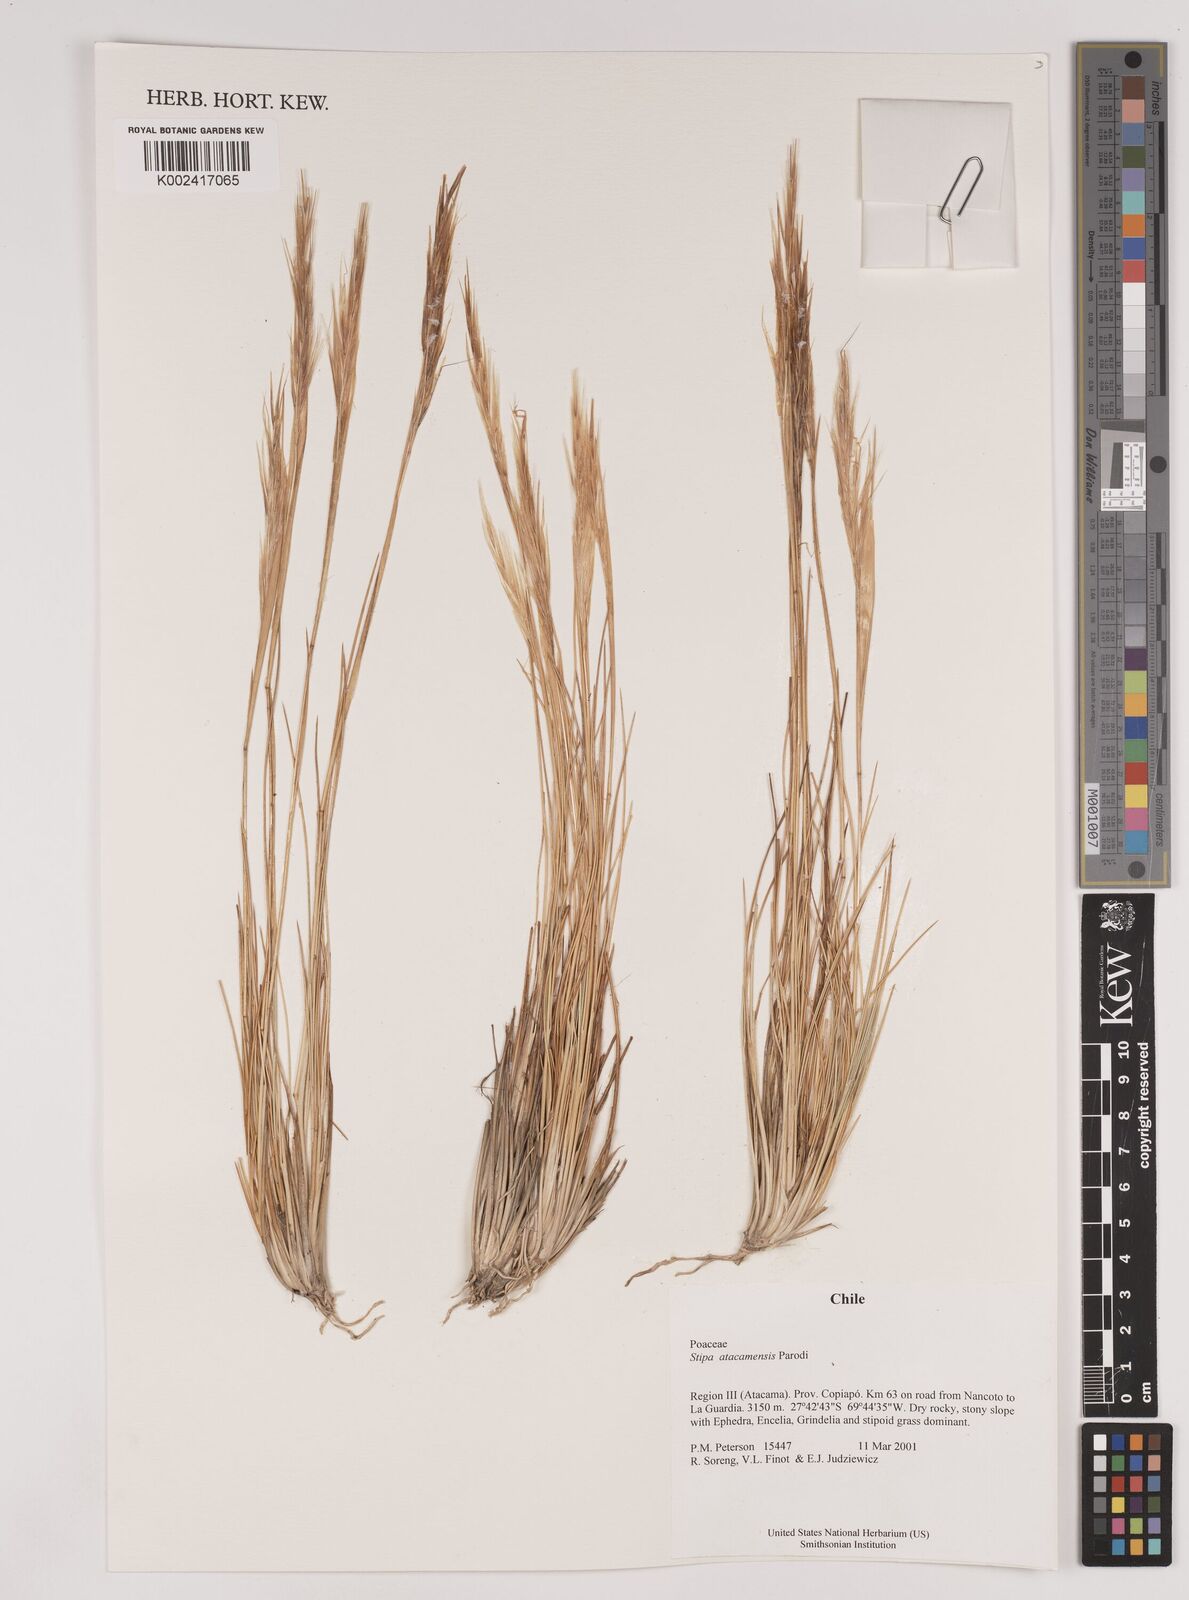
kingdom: Plantae
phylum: Tracheophyta
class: Liliopsida
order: Poales
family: Poaceae
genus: Pappostipa
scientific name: Pappostipa atacamensis
